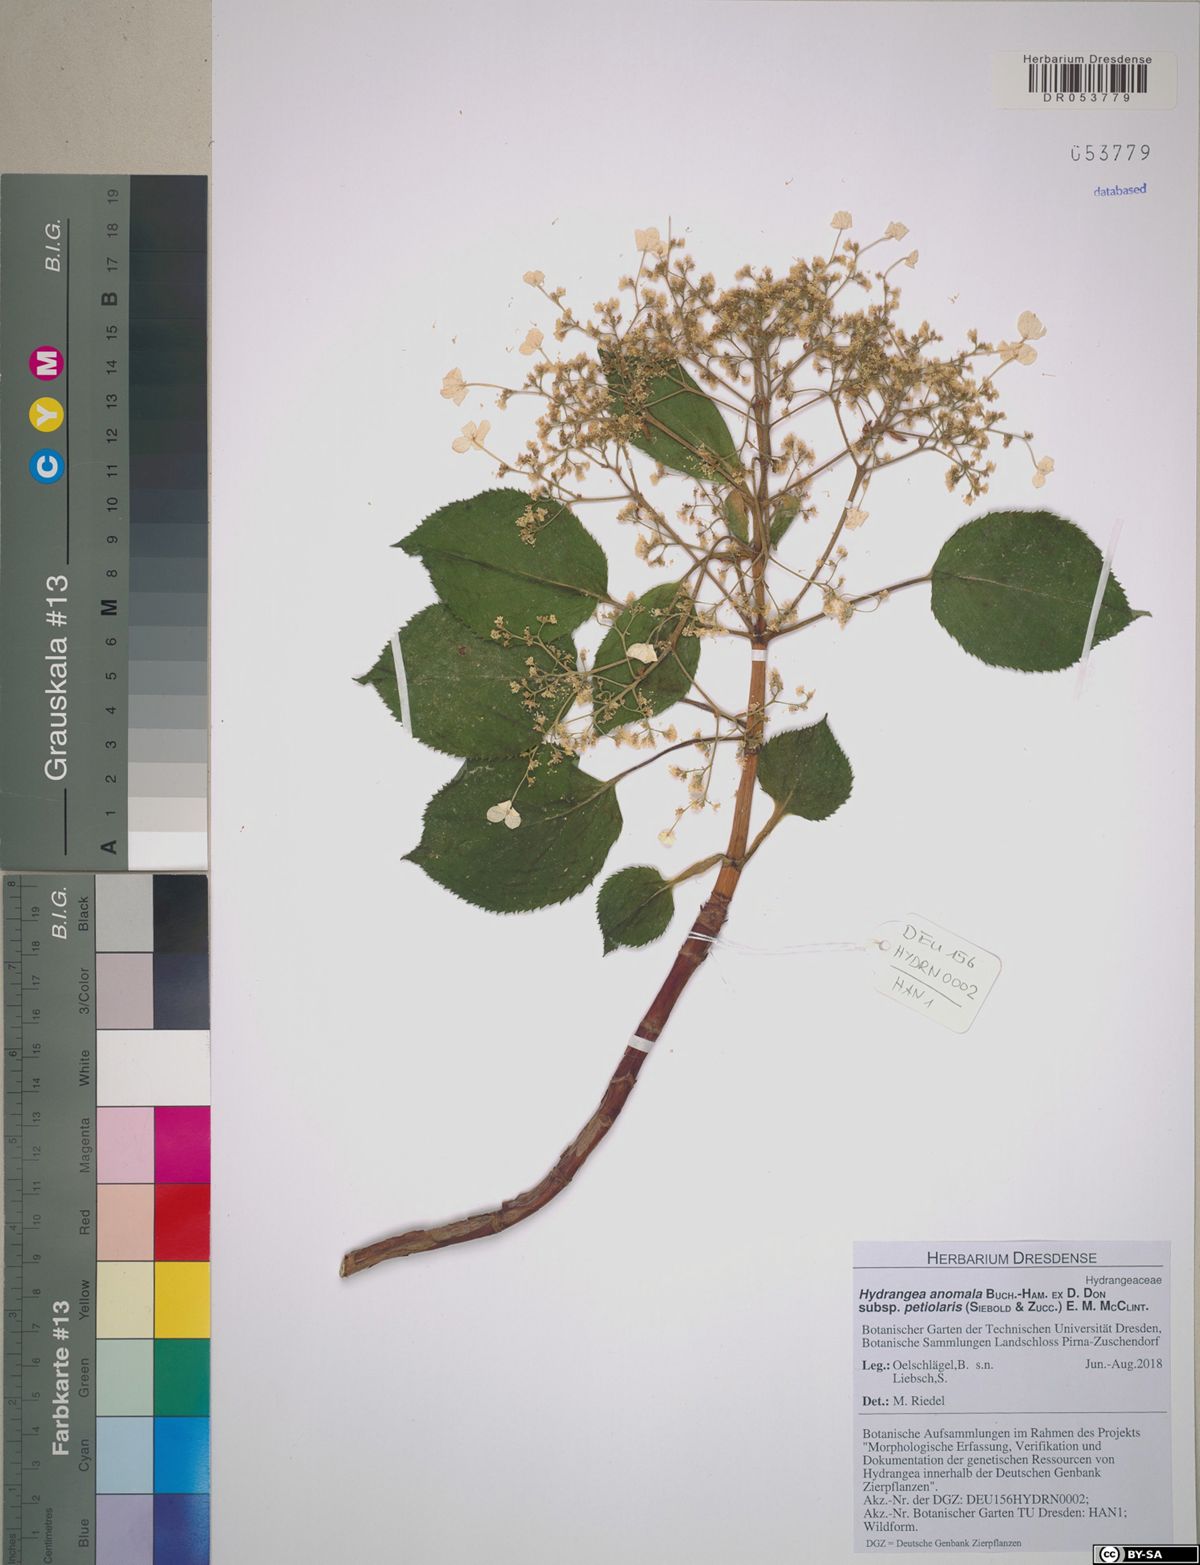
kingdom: Plantae
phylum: Tracheophyta
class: Magnoliopsida
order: Cornales
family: Hydrangeaceae
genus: Hydrangea
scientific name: Hydrangea petiolaris
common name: Japanese climbing hydrangea
